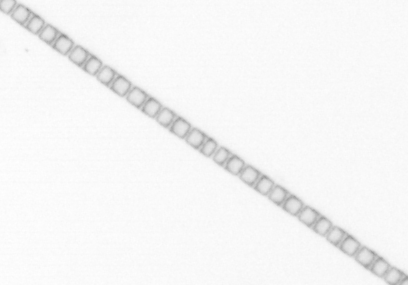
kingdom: Chromista
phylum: Ochrophyta
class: Bacillariophyceae
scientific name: Bacillariophyceae
